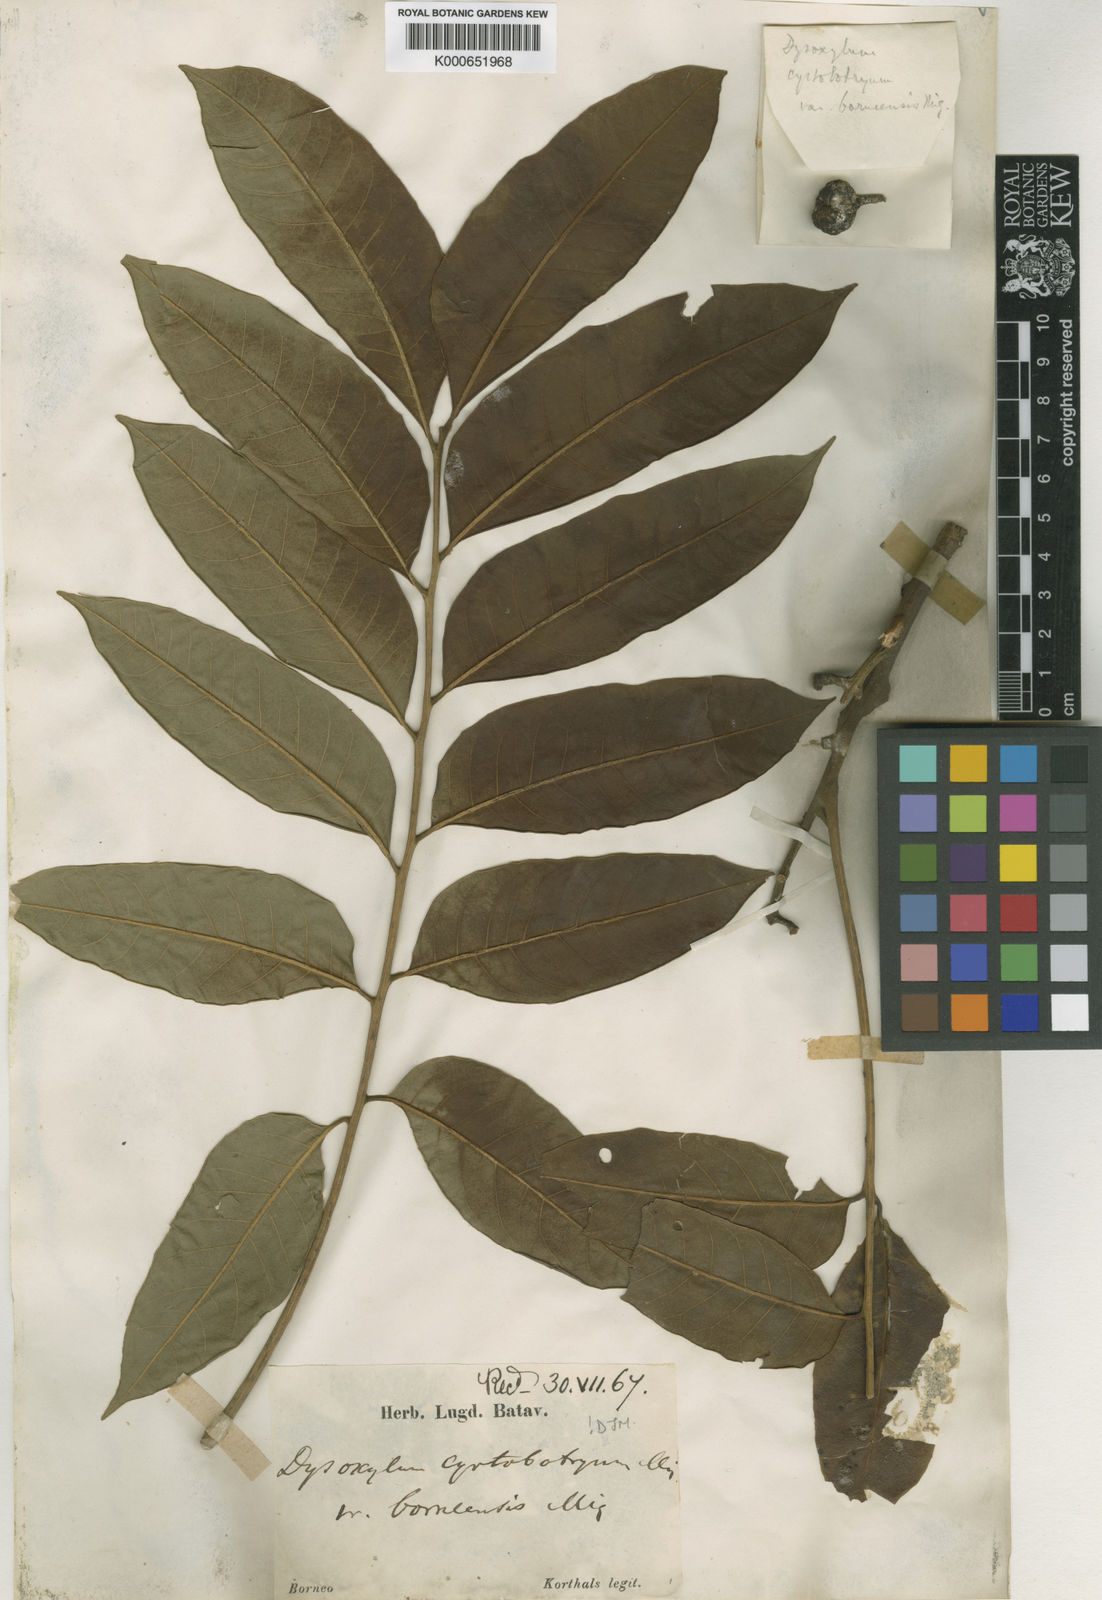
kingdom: Plantae
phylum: Tracheophyta
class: Magnoliopsida
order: Sapindales
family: Meliaceae
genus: Dysoxylum
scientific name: Dysoxylum cyrtobotryum
